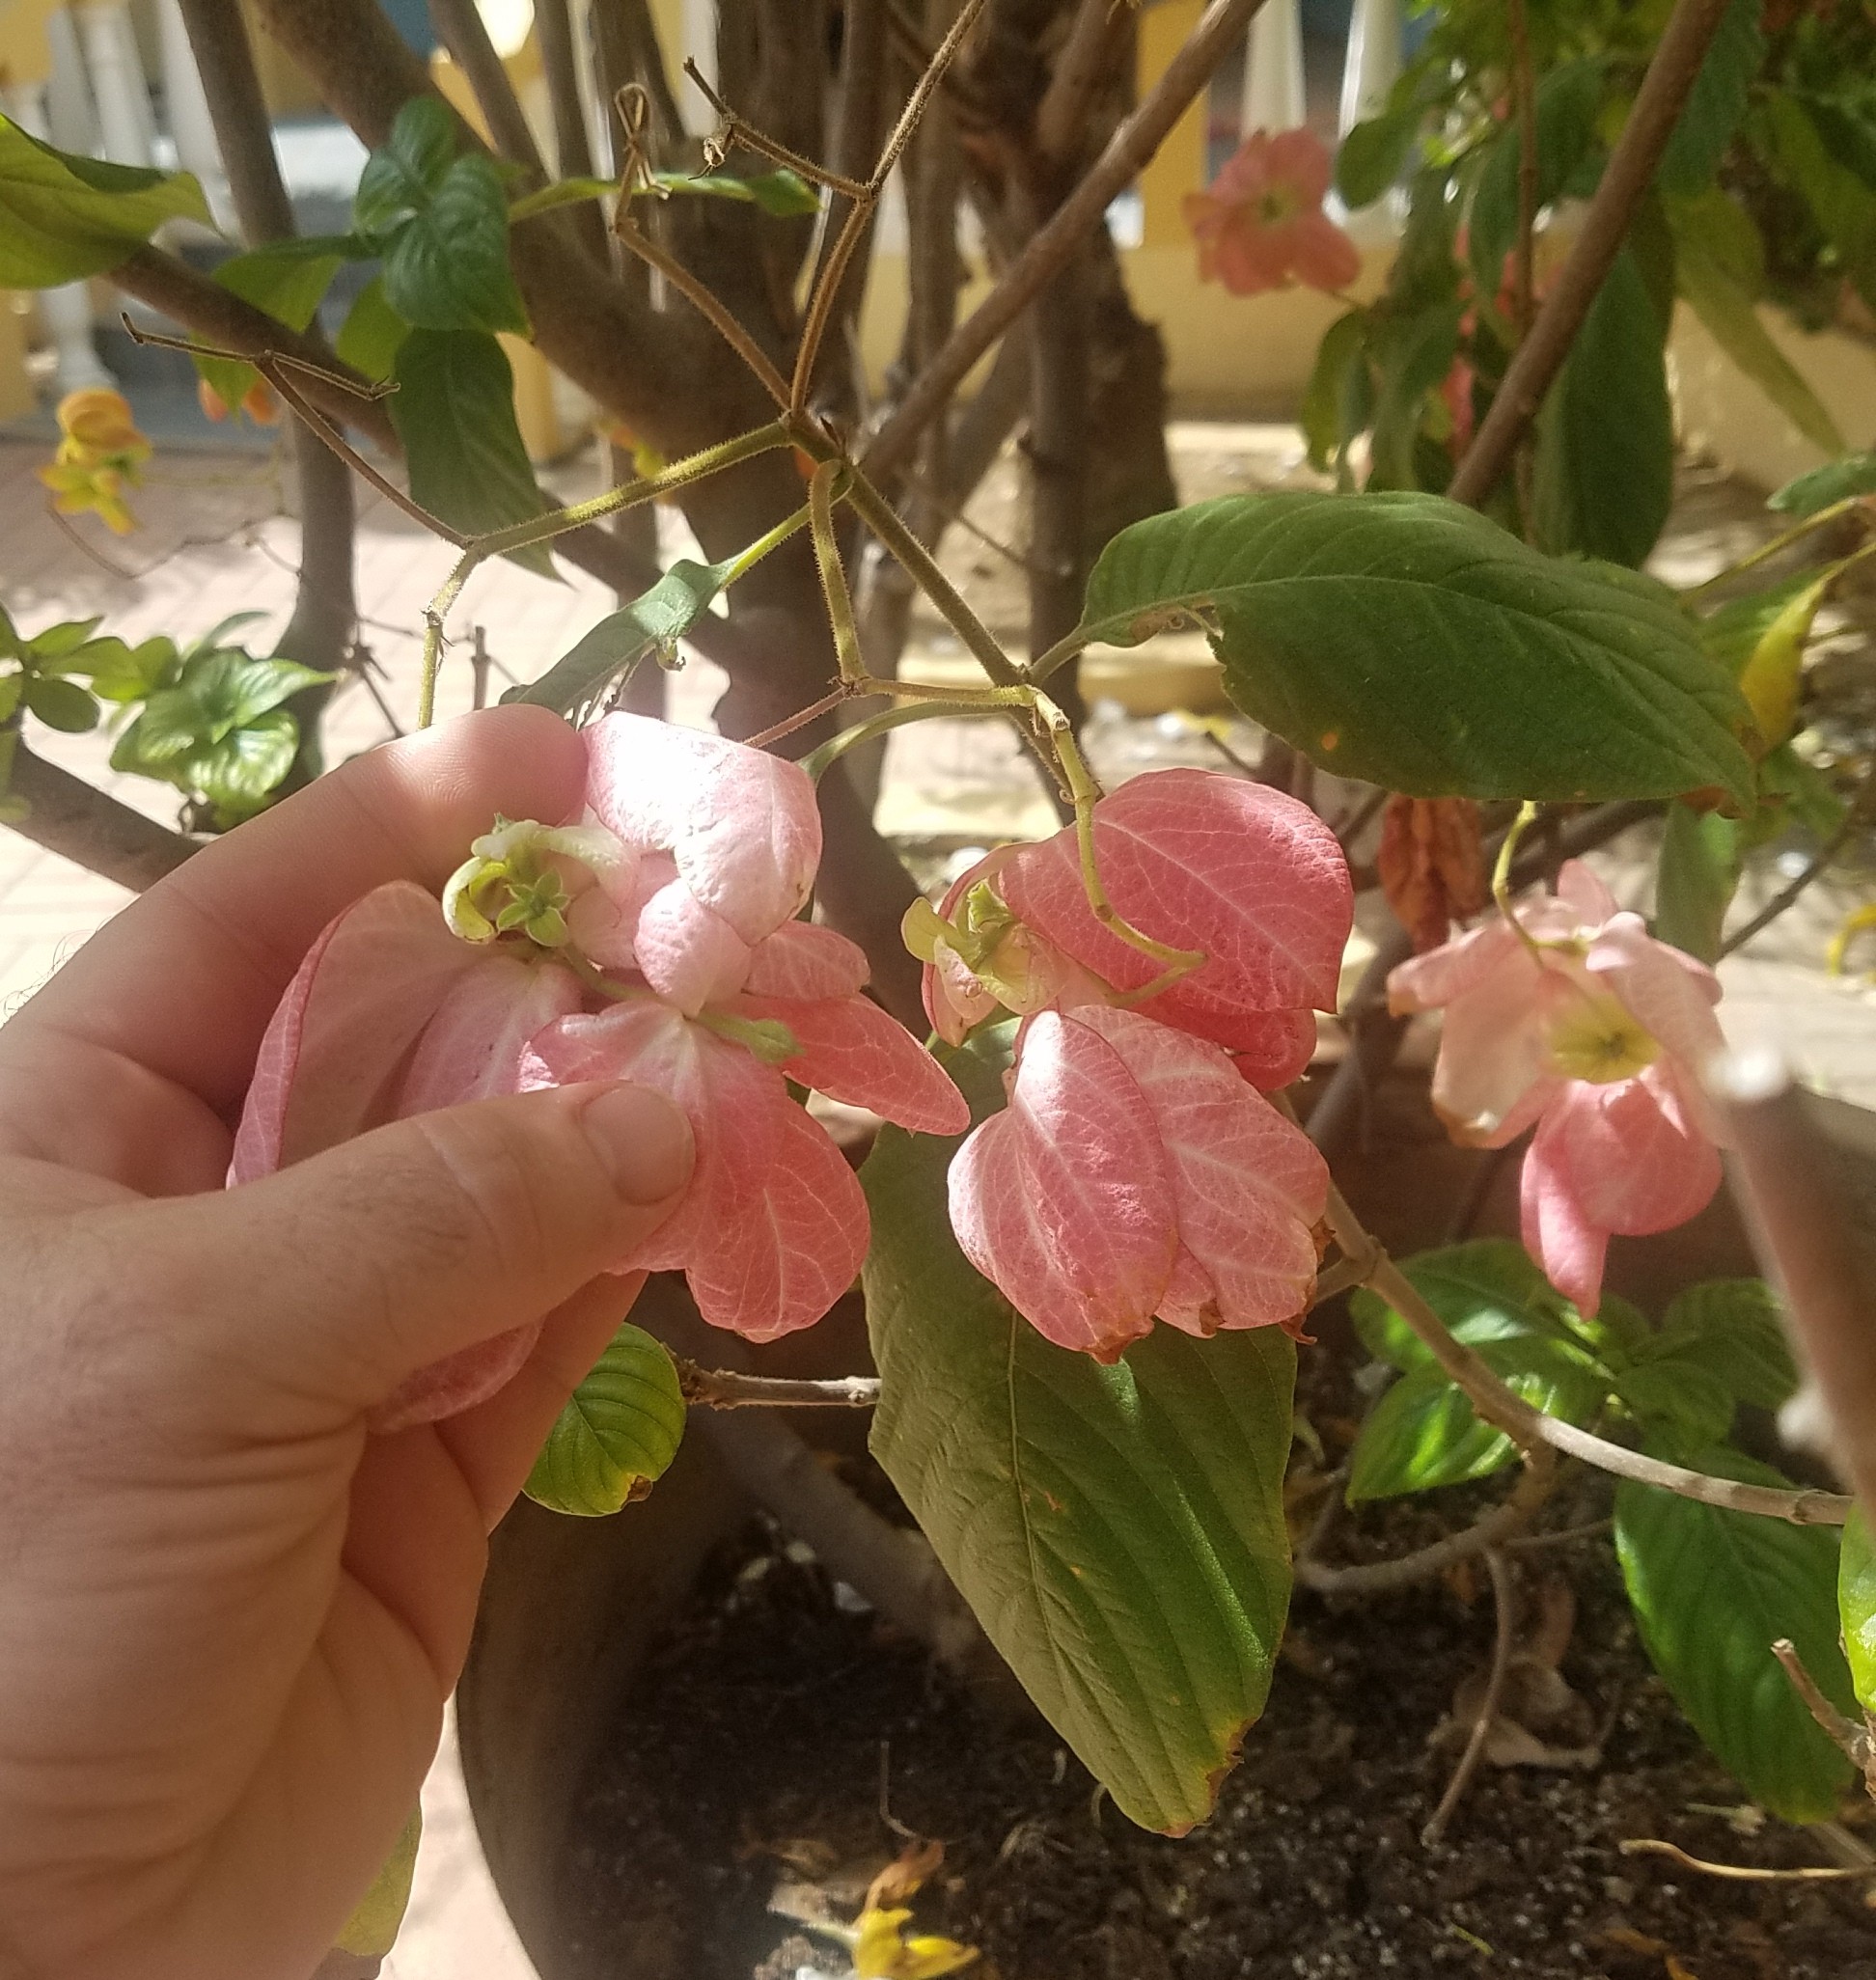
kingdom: Plantae
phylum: Tracheophyta
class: Magnoliopsida
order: Gentianales
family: Rubiaceae
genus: Mussaenda
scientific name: Mussaenda erythrophylla
